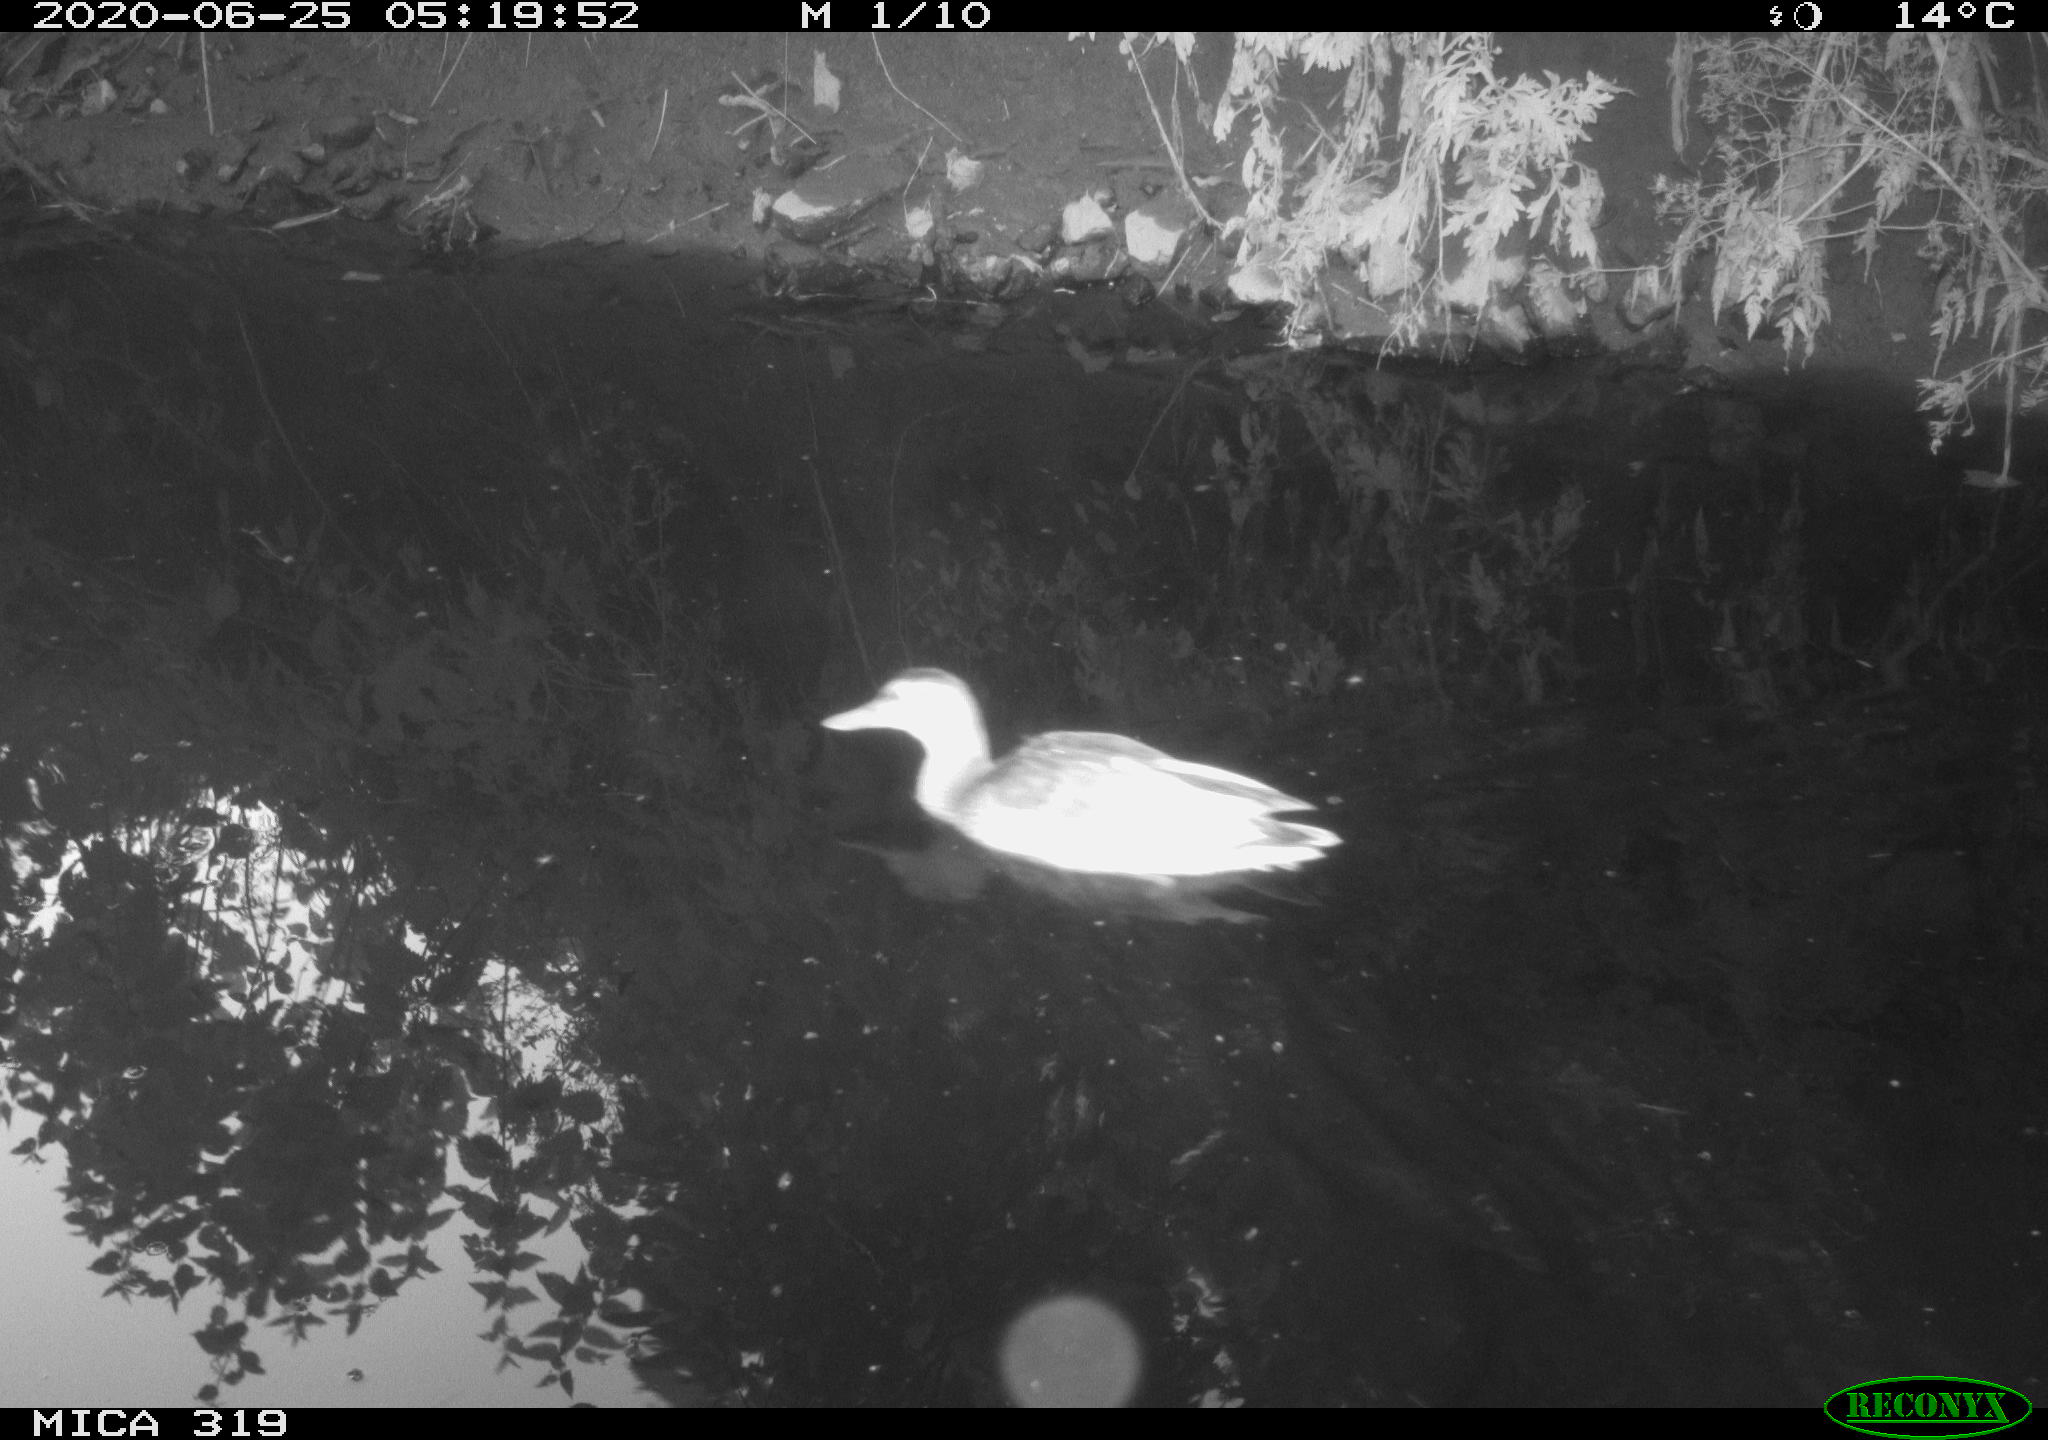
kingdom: Animalia
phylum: Chordata
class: Aves
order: Anseriformes
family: Anatidae
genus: Anas
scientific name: Anas platyrhynchos
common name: Mallard
